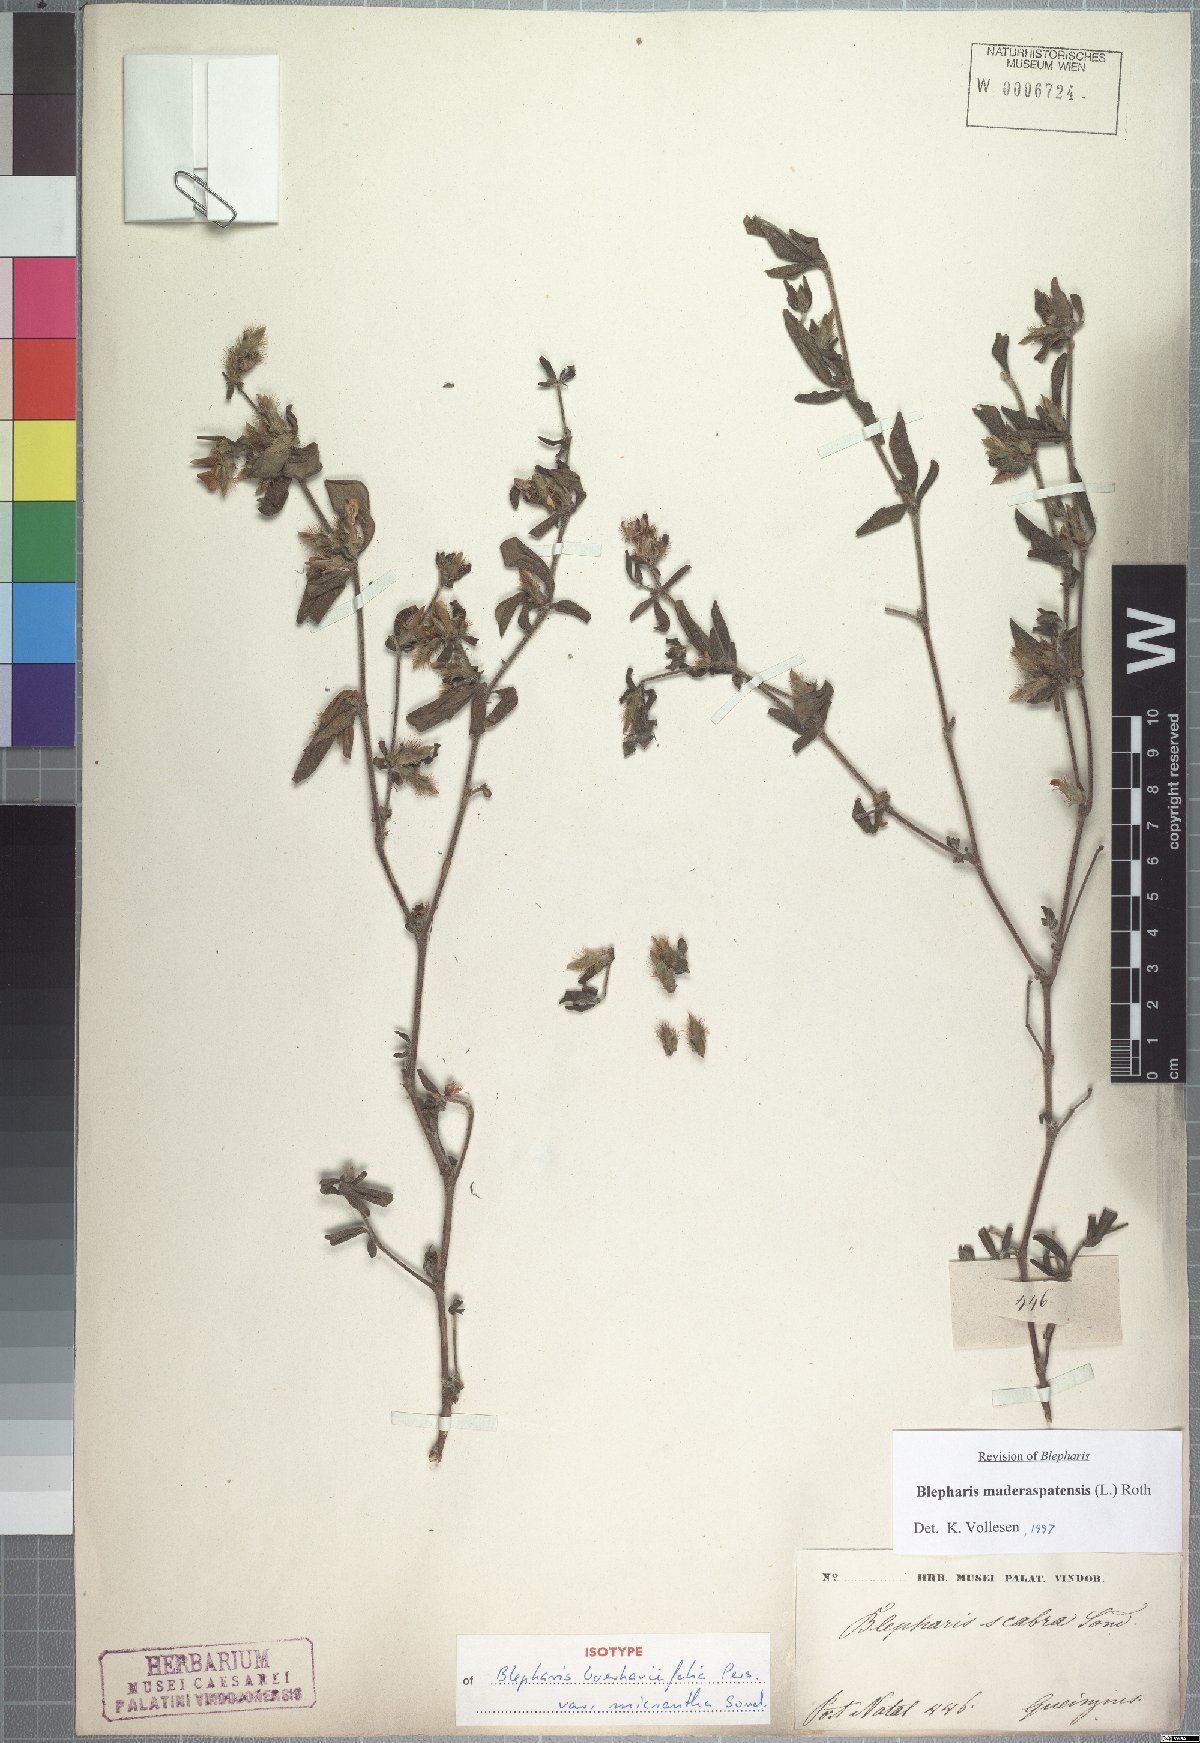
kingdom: Plantae
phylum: Tracheophyta
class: Magnoliopsida
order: Lamiales
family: Acanthaceae
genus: Blepharis
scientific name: Blepharis maderaspatensis
